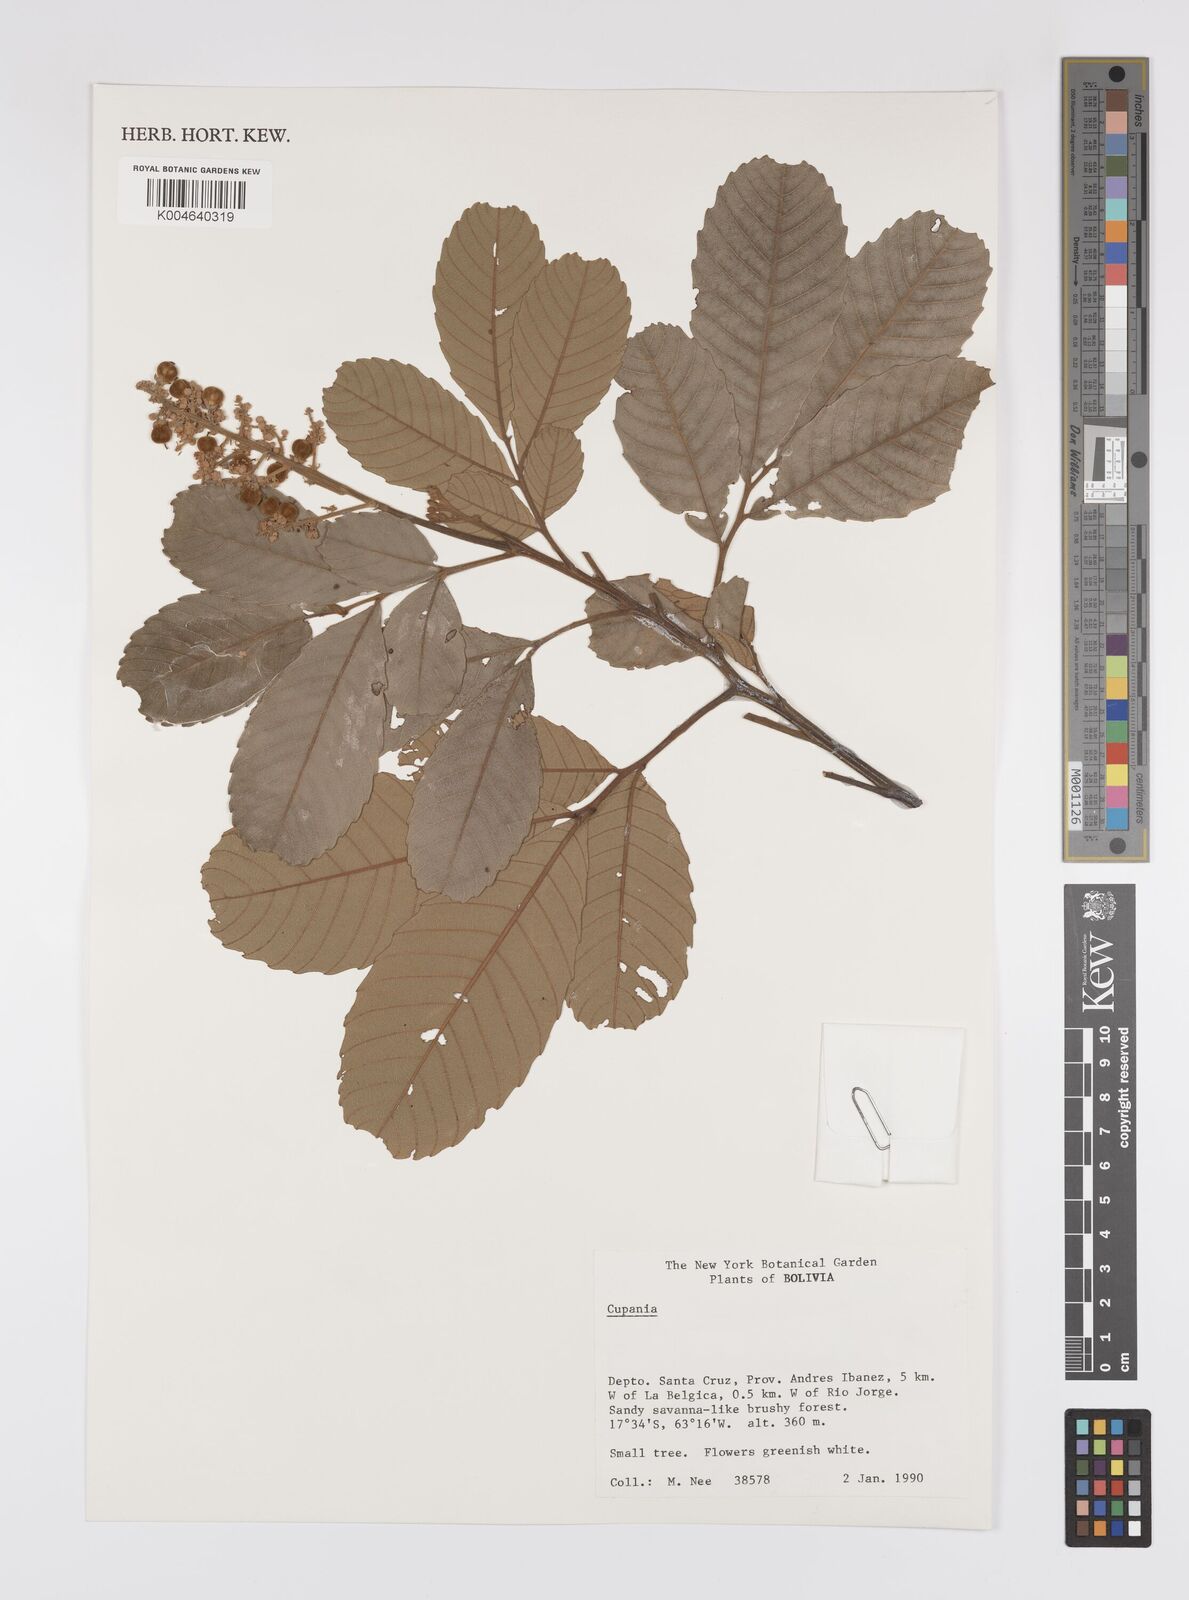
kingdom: Plantae
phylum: Tracheophyta
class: Magnoliopsida
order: Sapindales
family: Sapindaceae
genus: Cupania
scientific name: Cupania
